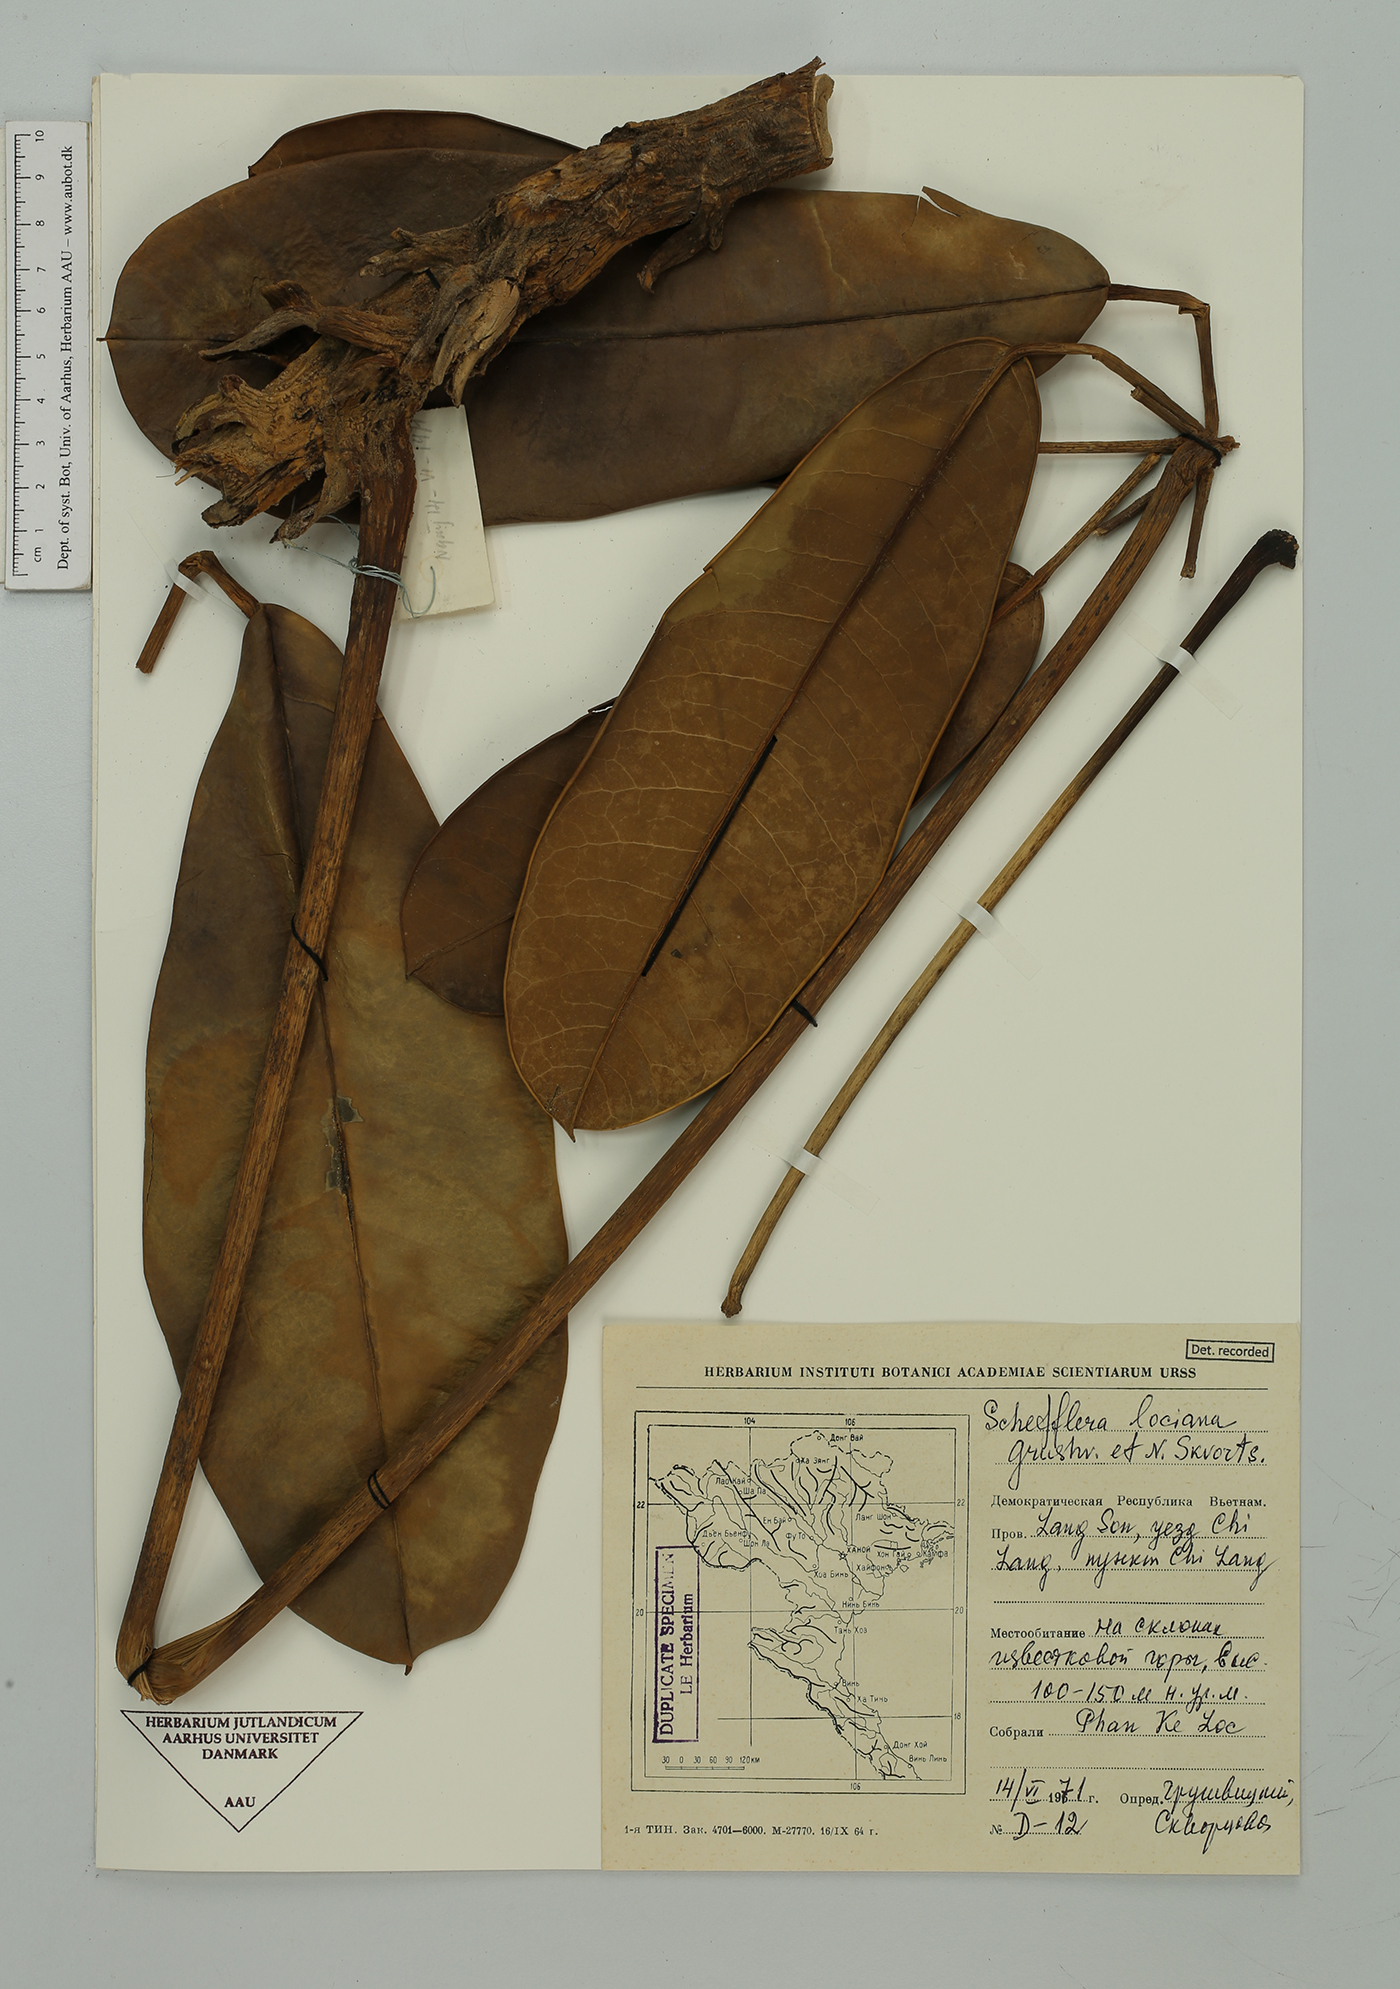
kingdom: Plantae
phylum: Tracheophyta
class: Magnoliopsida
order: Apiales
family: Araliaceae
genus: Heptapleurum
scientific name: Heptapleurum locianum
